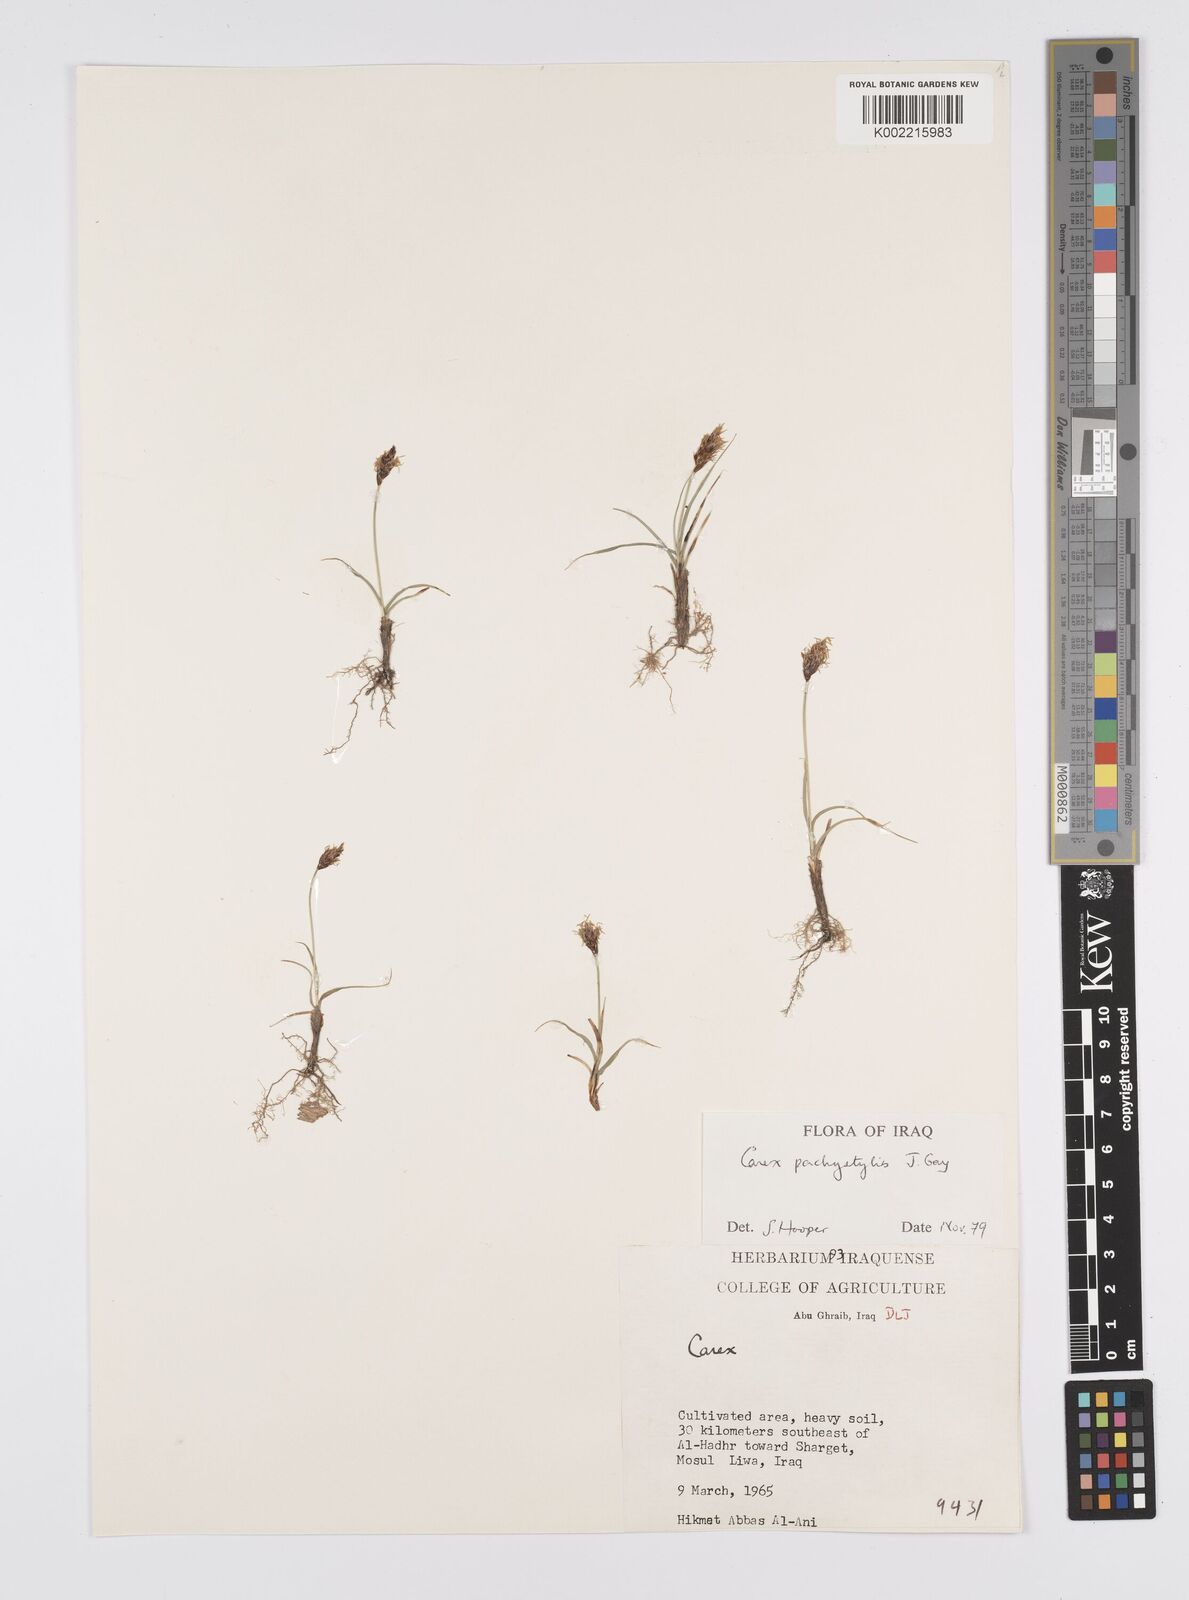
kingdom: Plantae
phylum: Tracheophyta
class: Liliopsida
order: Poales
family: Cyperaceae
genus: Carex
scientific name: Carex pachystylis
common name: Thick-stem sedge
